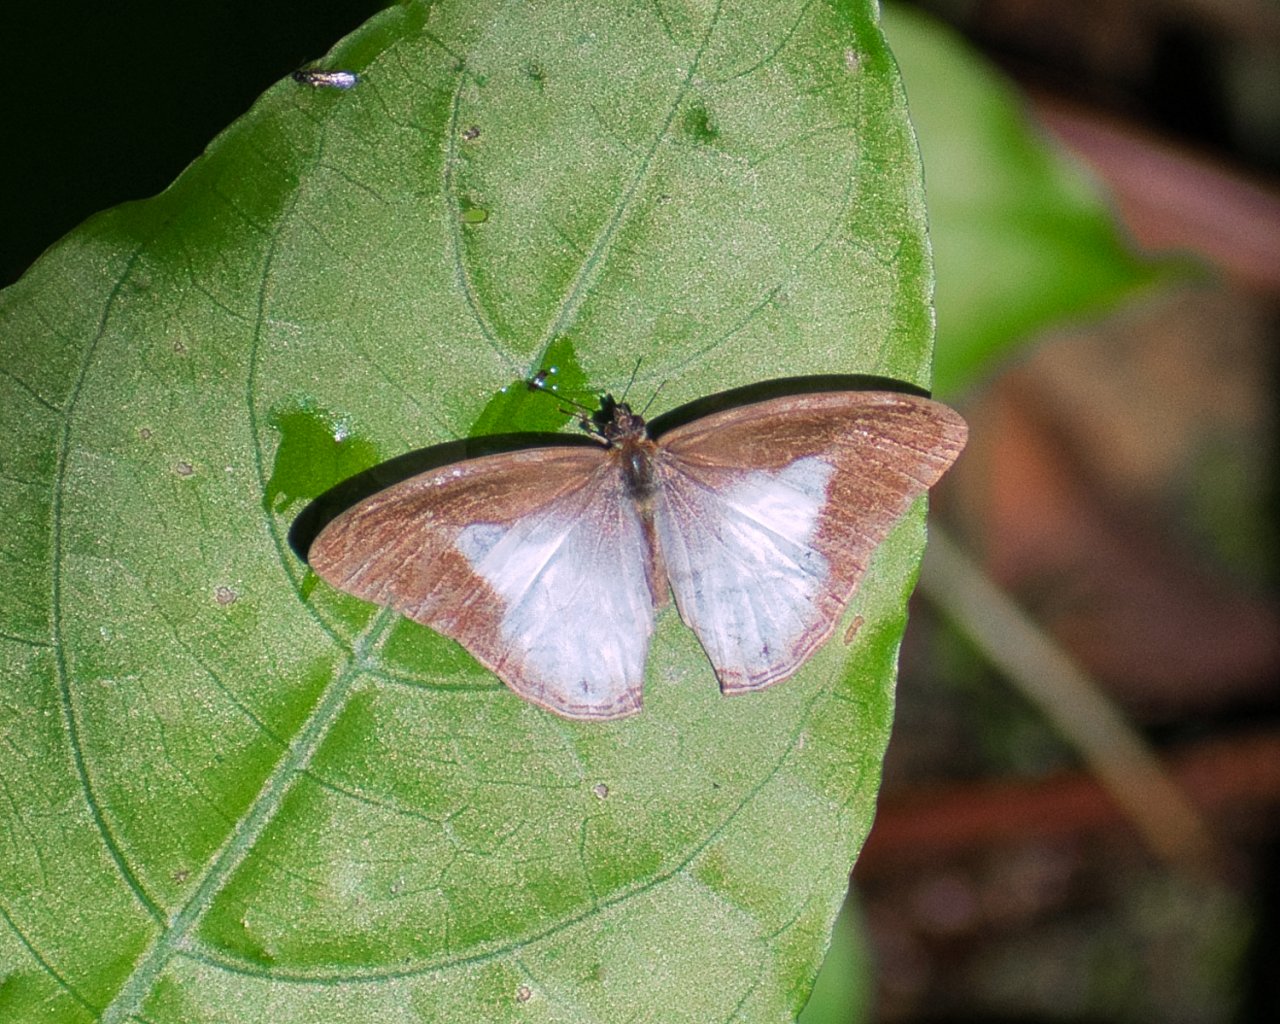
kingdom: Animalia
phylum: Arthropoda
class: Insecta
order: Lepidoptera
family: Nymphalidae
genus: Pareuptychia
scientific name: Pareuptychia metaleuca
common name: White-banded Satyr
